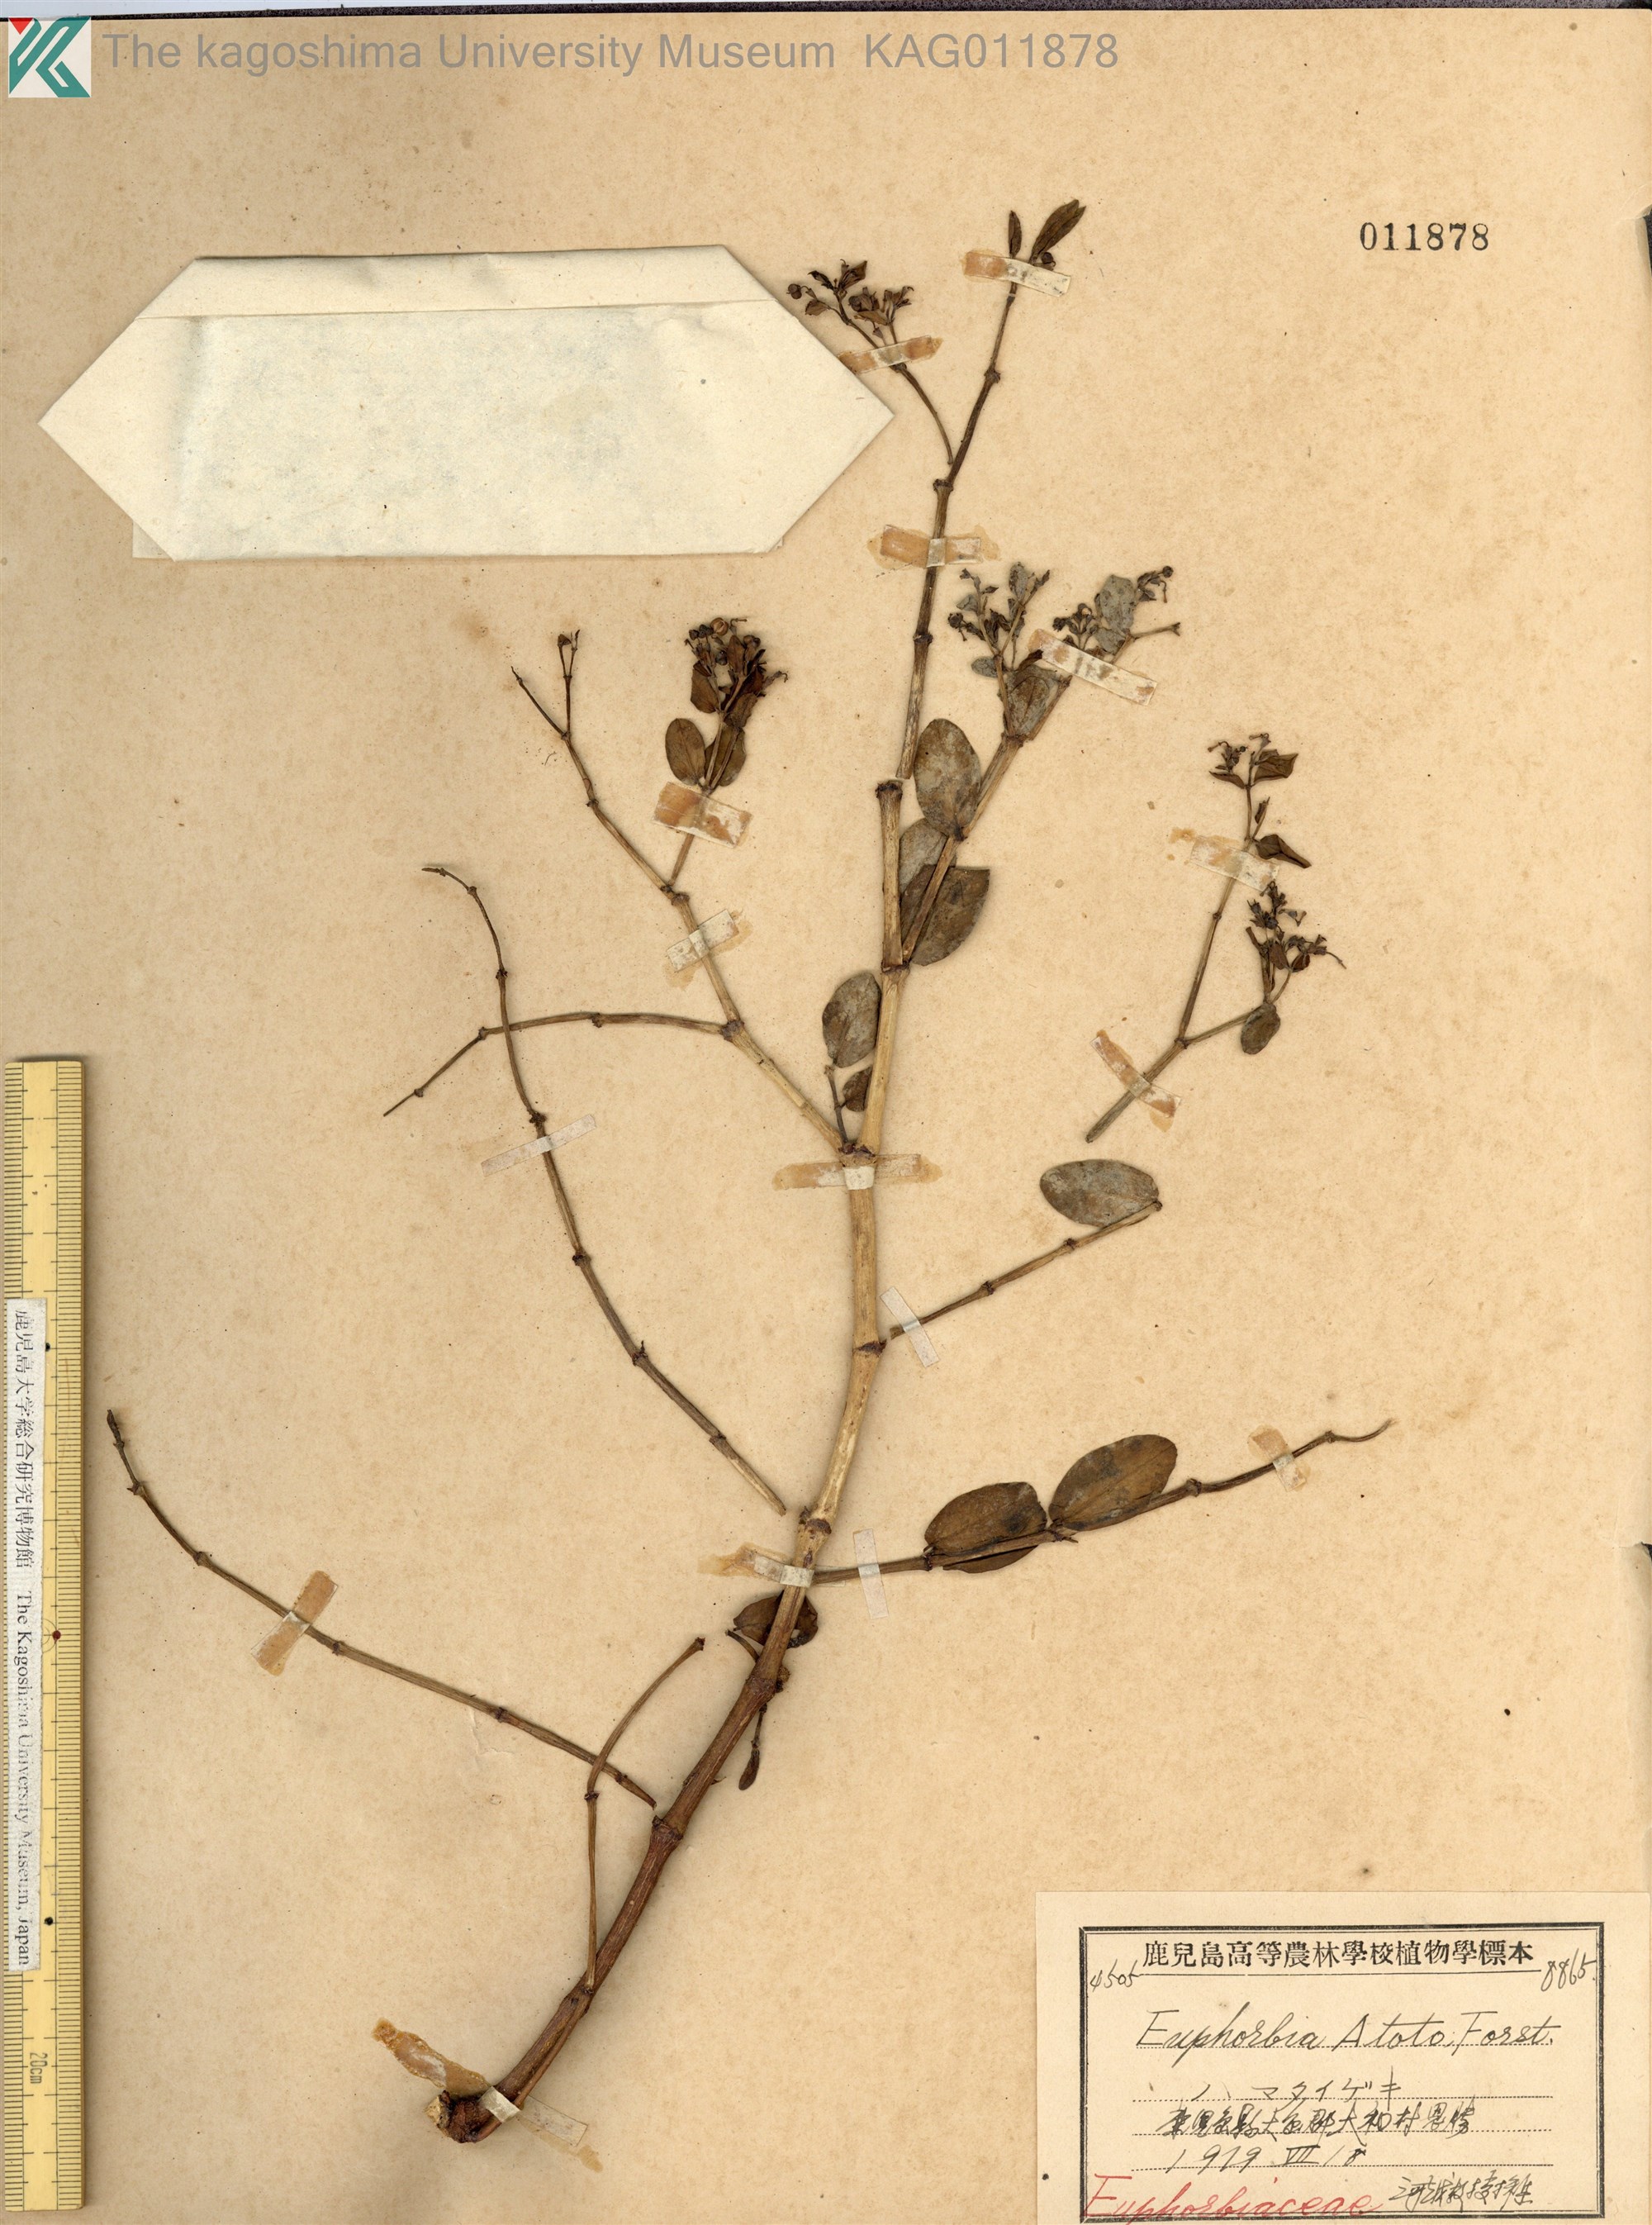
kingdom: Plantae
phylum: Tracheophyta
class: Magnoliopsida
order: Malpighiales
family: Euphorbiaceae
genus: Euphorbia
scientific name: Euphorbia chamissonis
